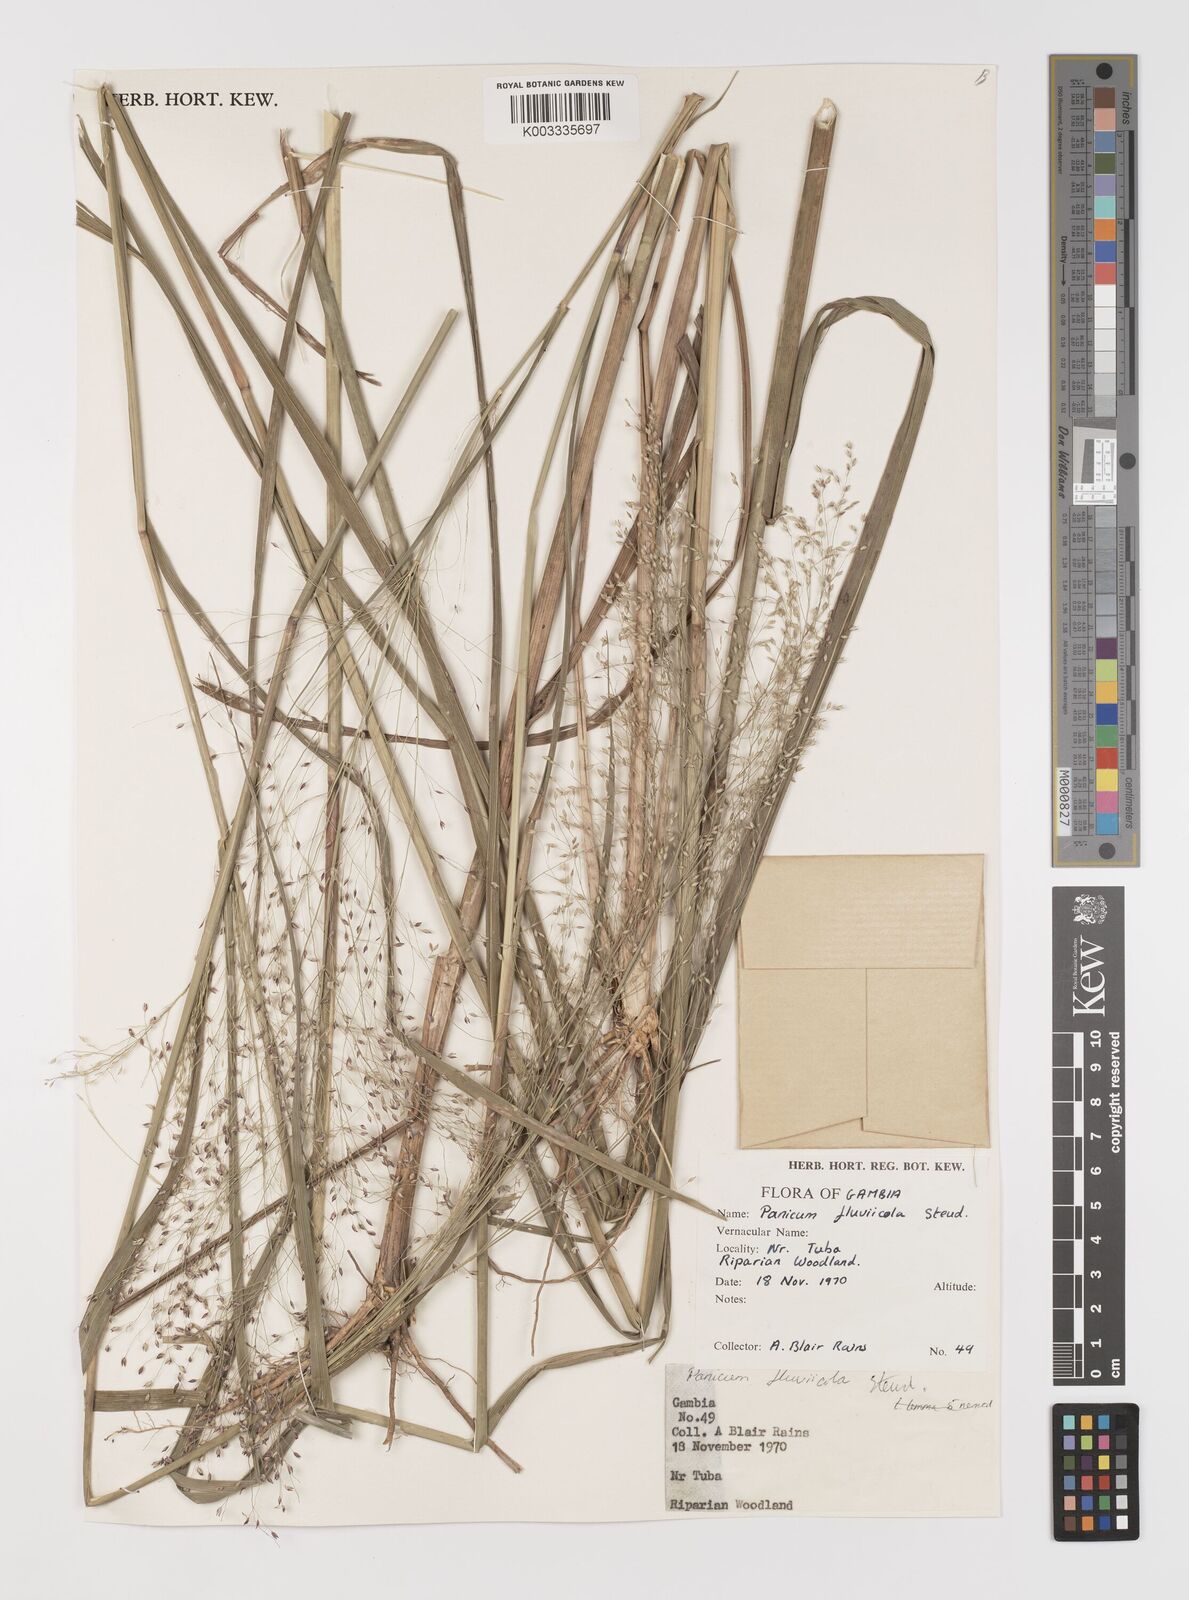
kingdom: Plantae
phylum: Tracheophyta
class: Liliopsida
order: Poales
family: Poaceae
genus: Panicum
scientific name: Panicum fluviicola
